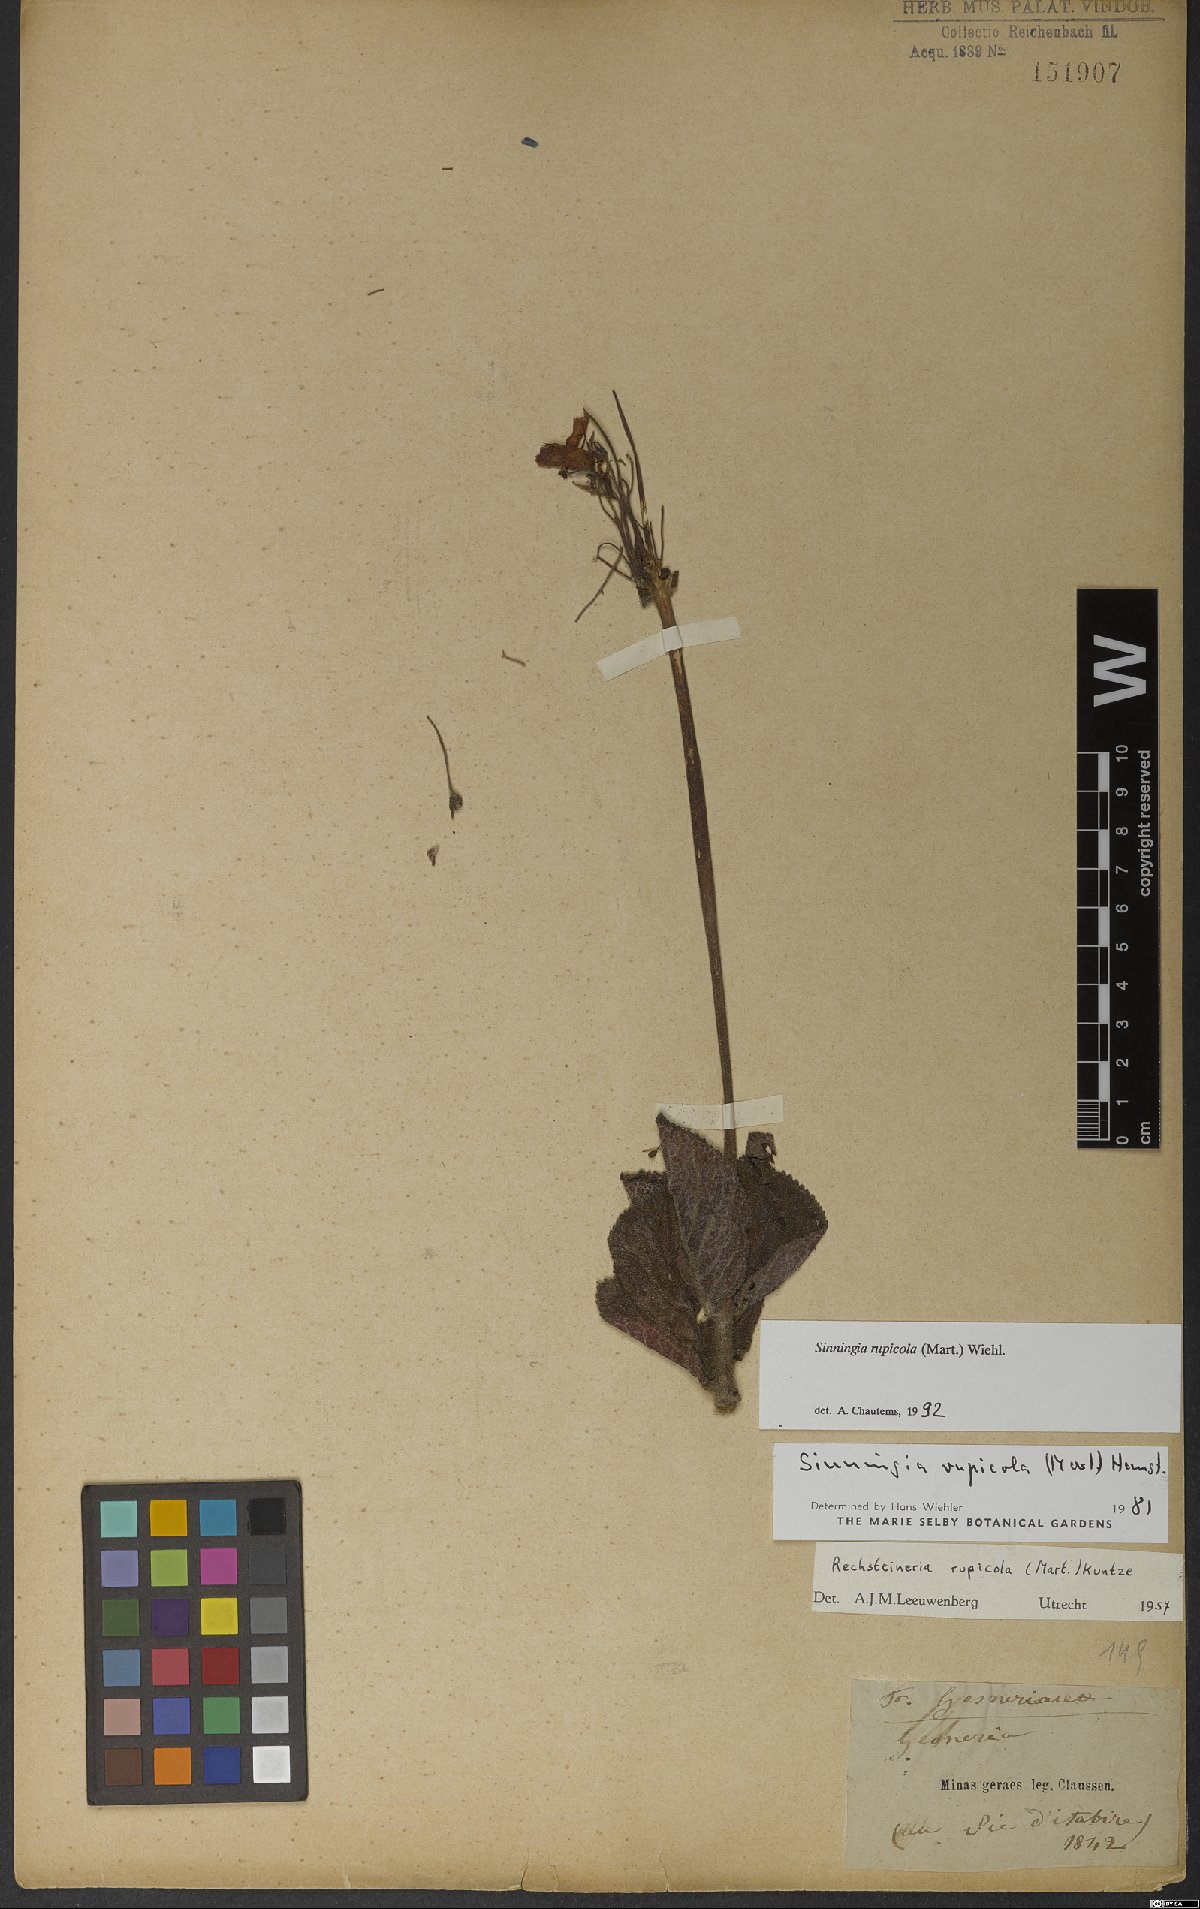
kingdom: Plantae
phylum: Tracheophyta
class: Magnoliopsida
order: Lamiales
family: Gesneriaceae
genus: Sinningia
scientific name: Sinningia rupicola
